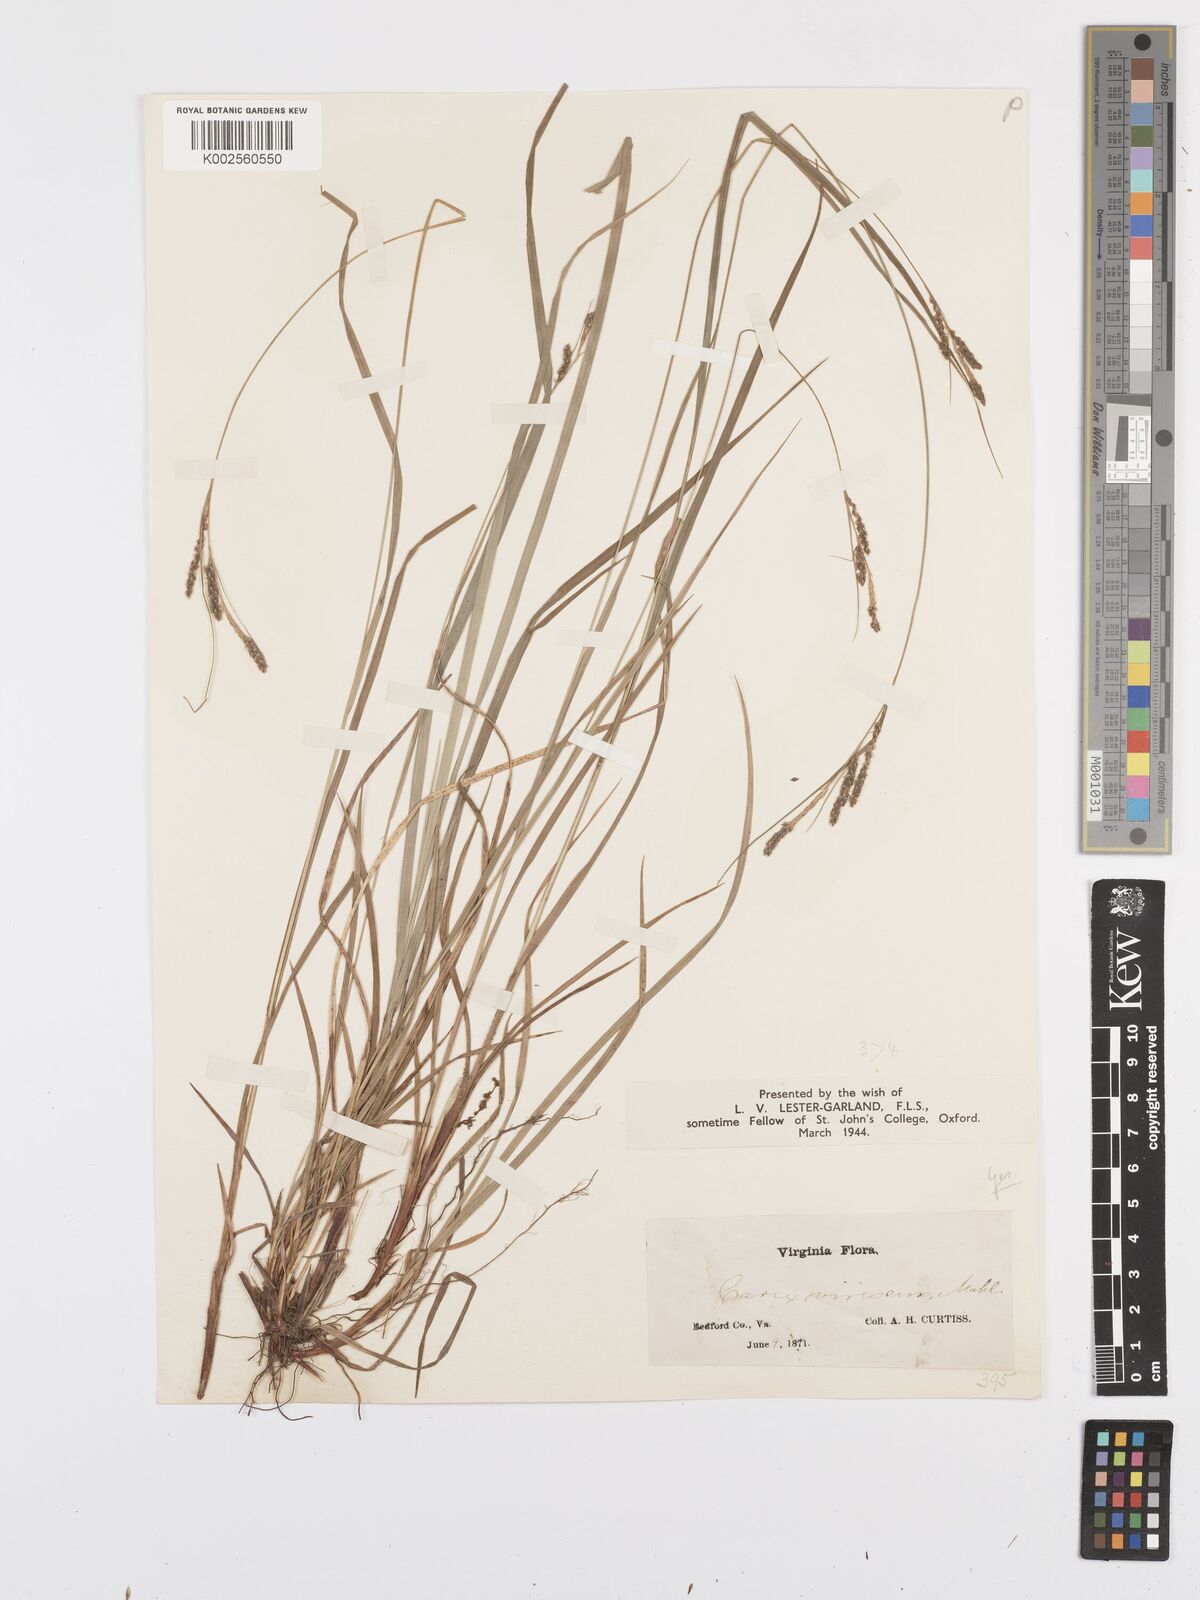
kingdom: Plantae
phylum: Tracheophyta
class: Liliopsida
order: Poales
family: Cyperaceae
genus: Carex
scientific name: Carex virescens
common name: Ribbed sedge
